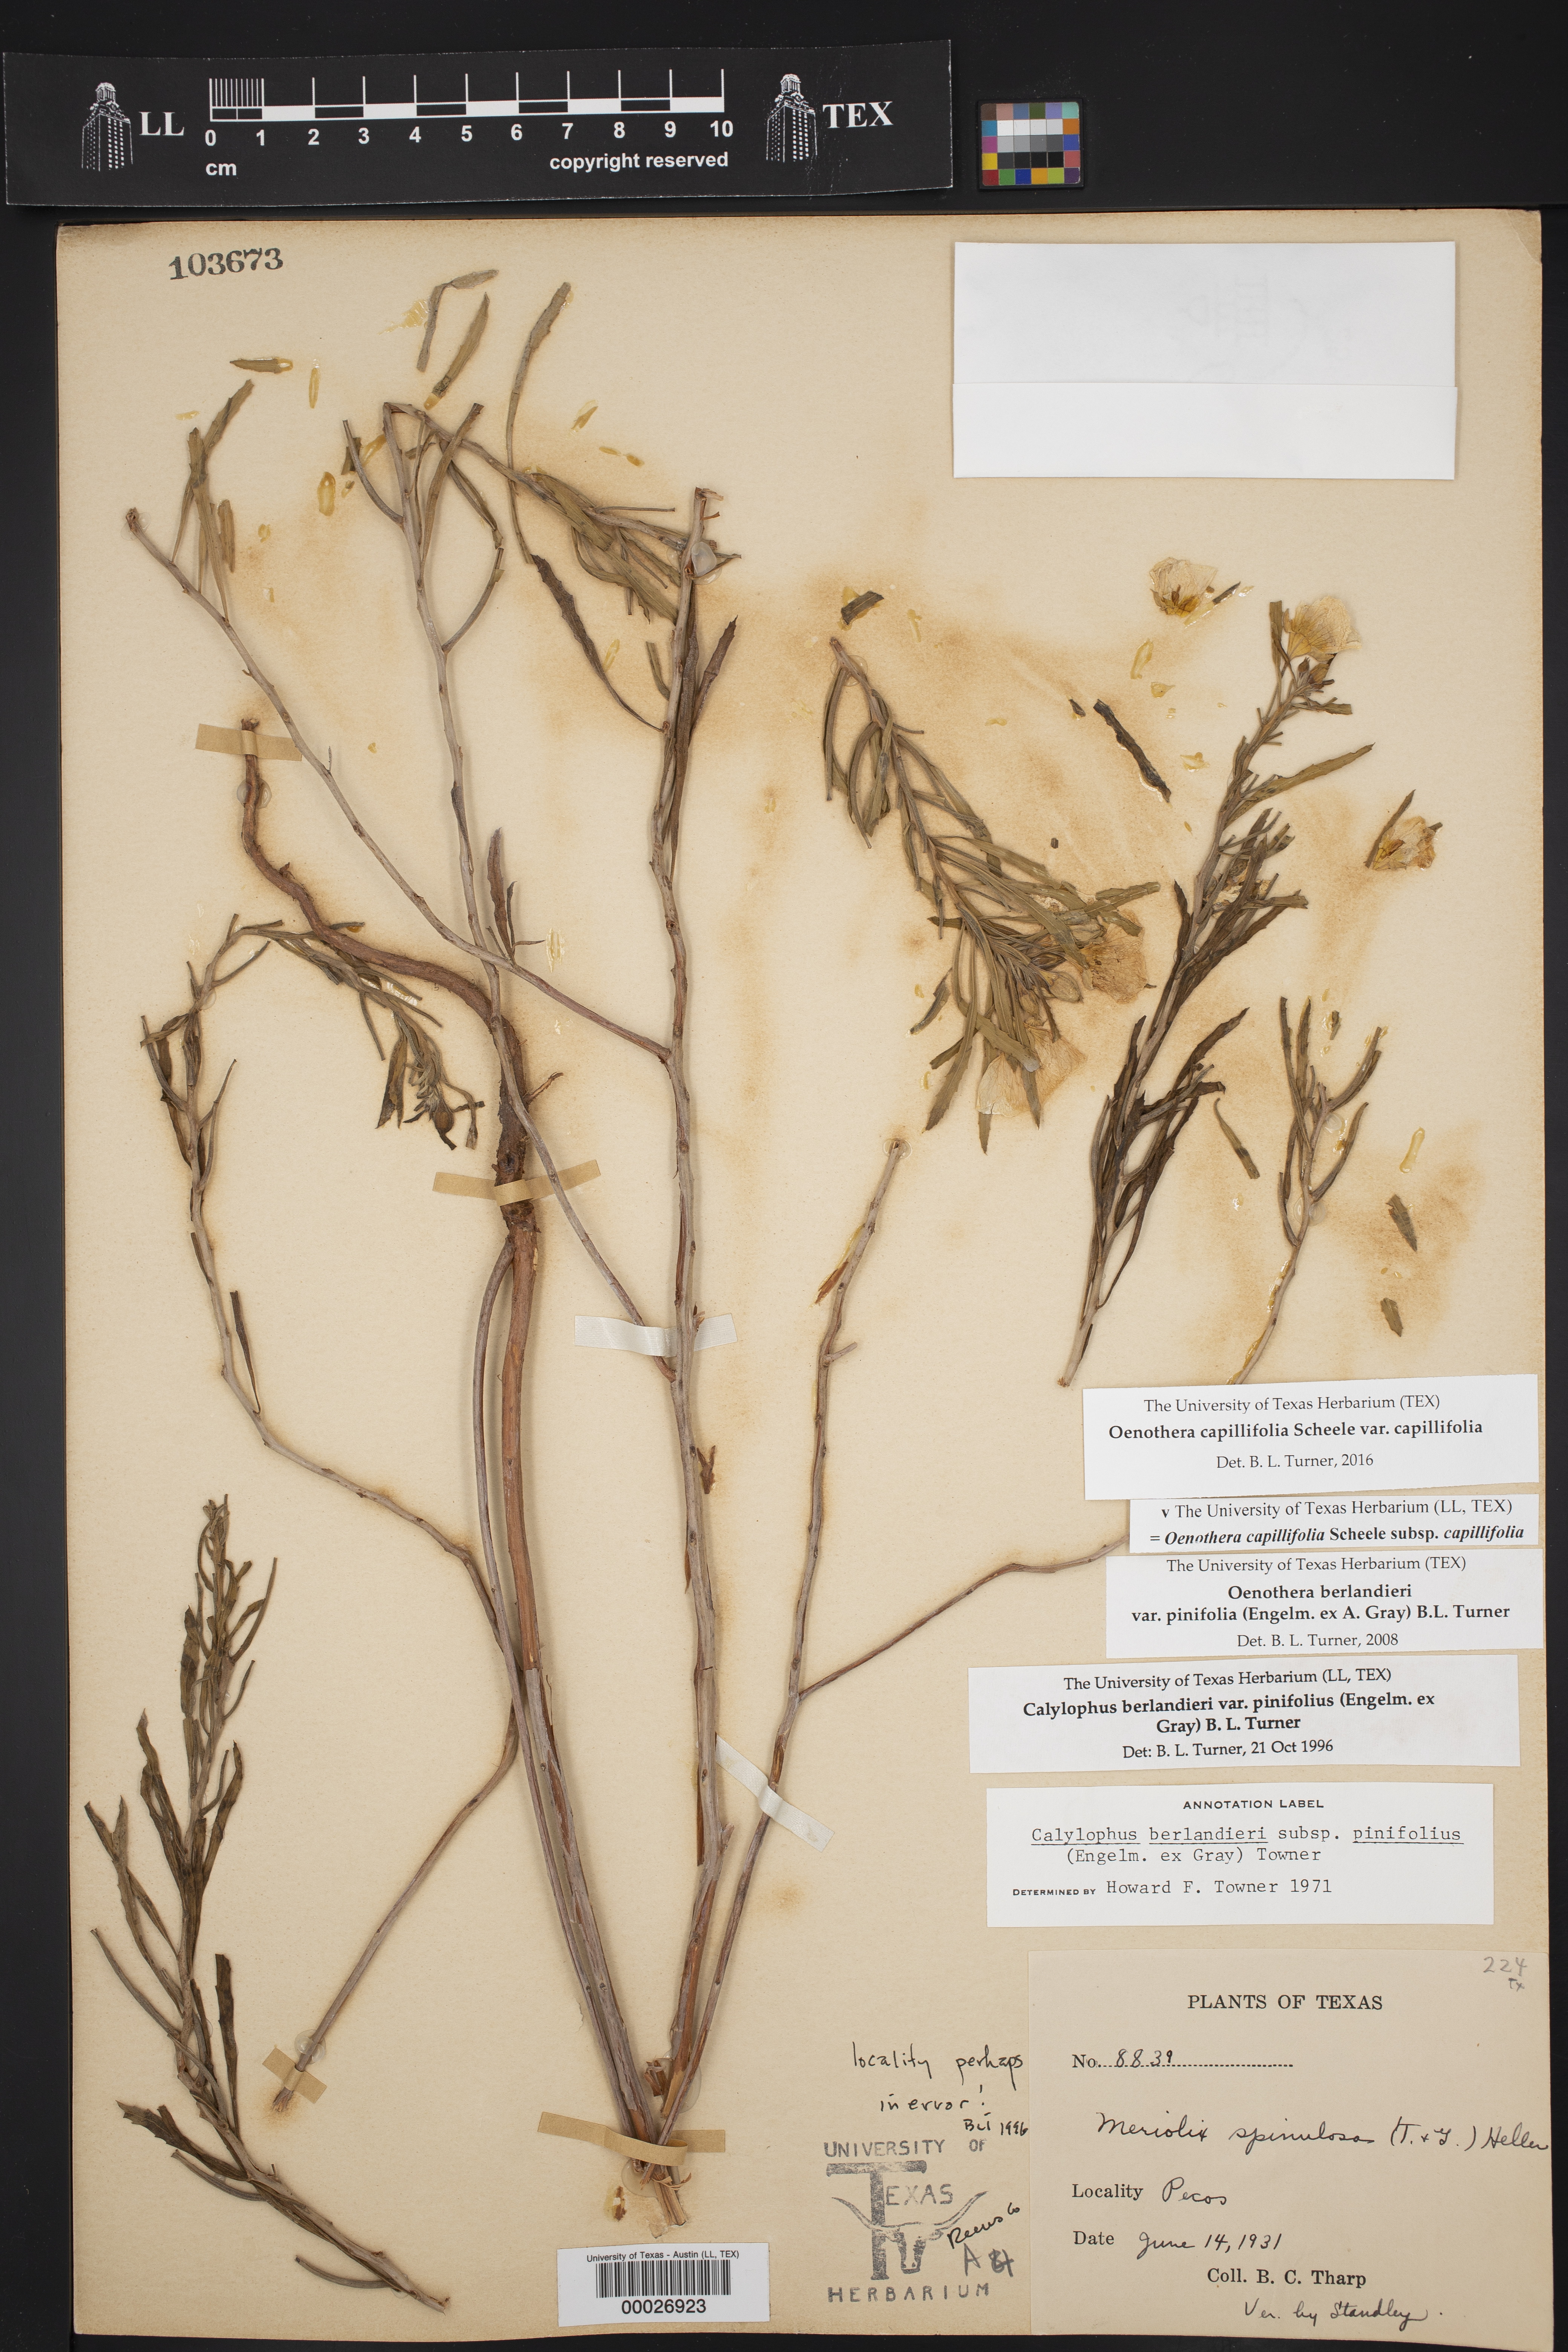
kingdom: Plantae
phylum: Tracheophyta
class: Magnoliopsida
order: Myrtales
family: Onagraceae
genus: Oenothera
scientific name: Oenothera capillifolia
